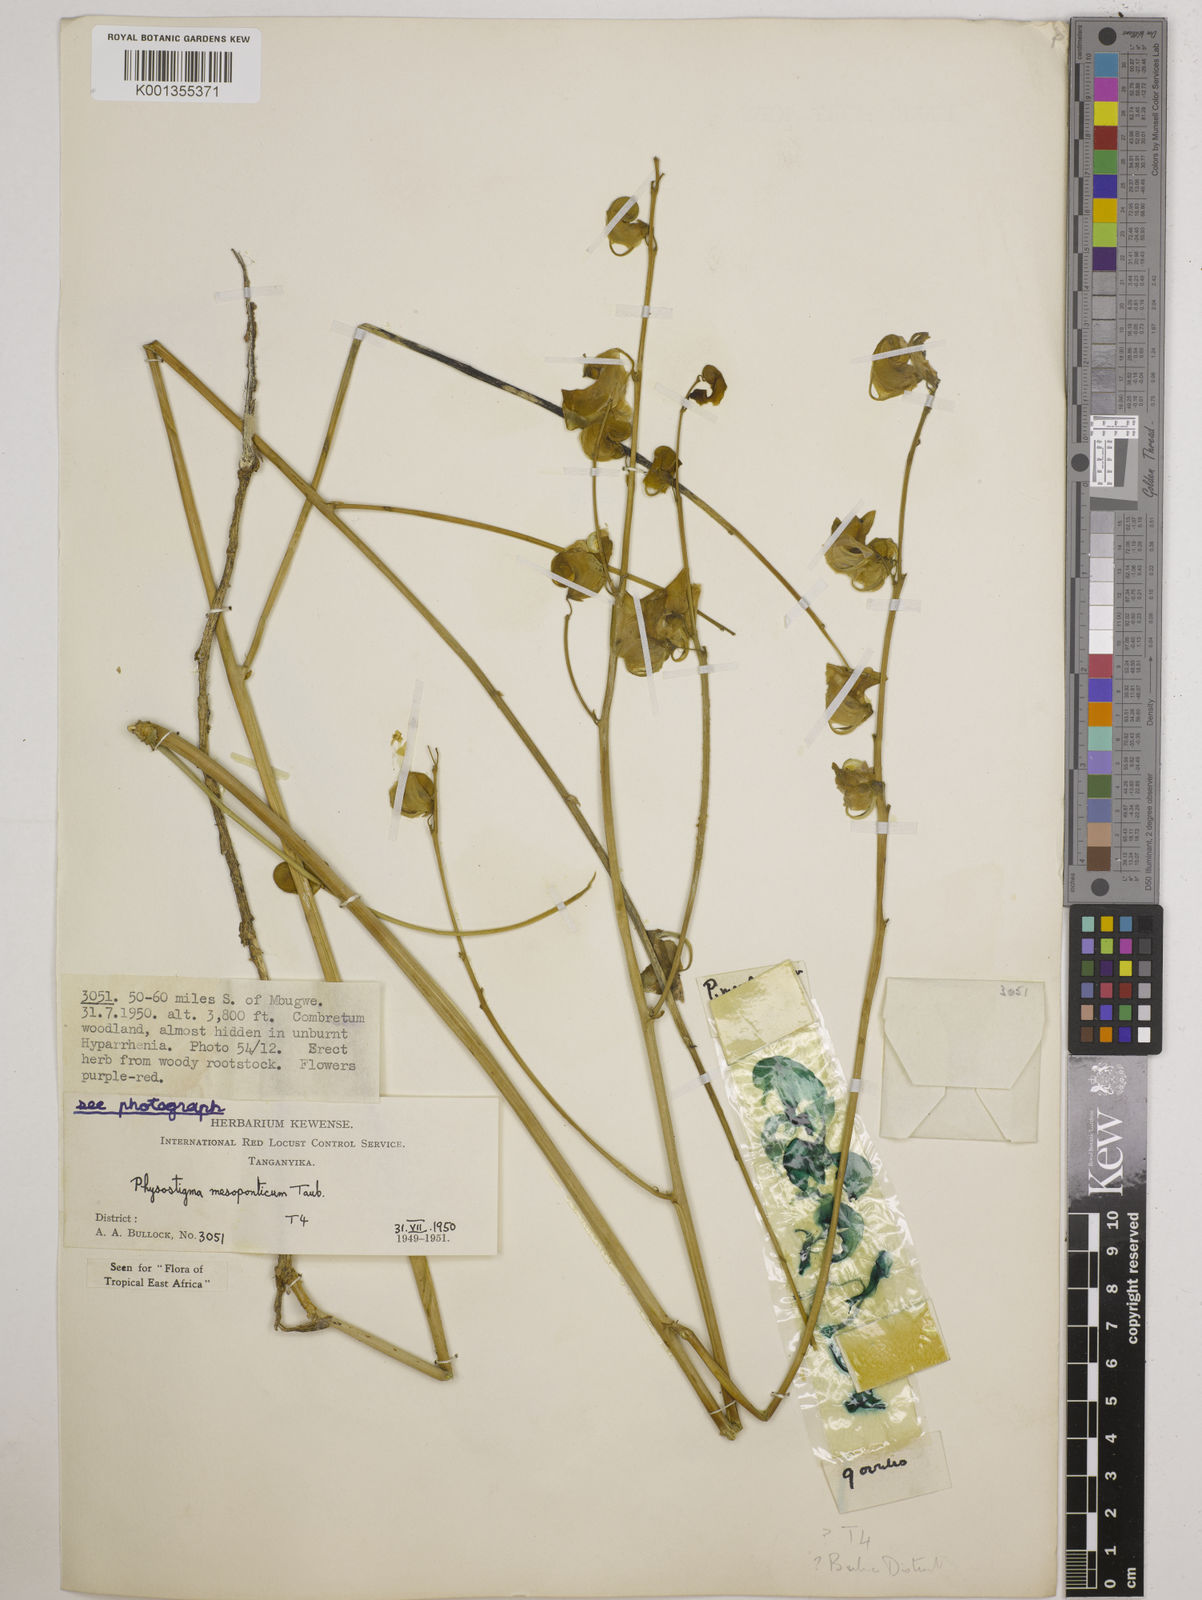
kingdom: Plantae
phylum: Tracheophyta
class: Magnoliopsida
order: Fabales
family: Fabaceae
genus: Physostigma
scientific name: Physostigma mesoponticum
